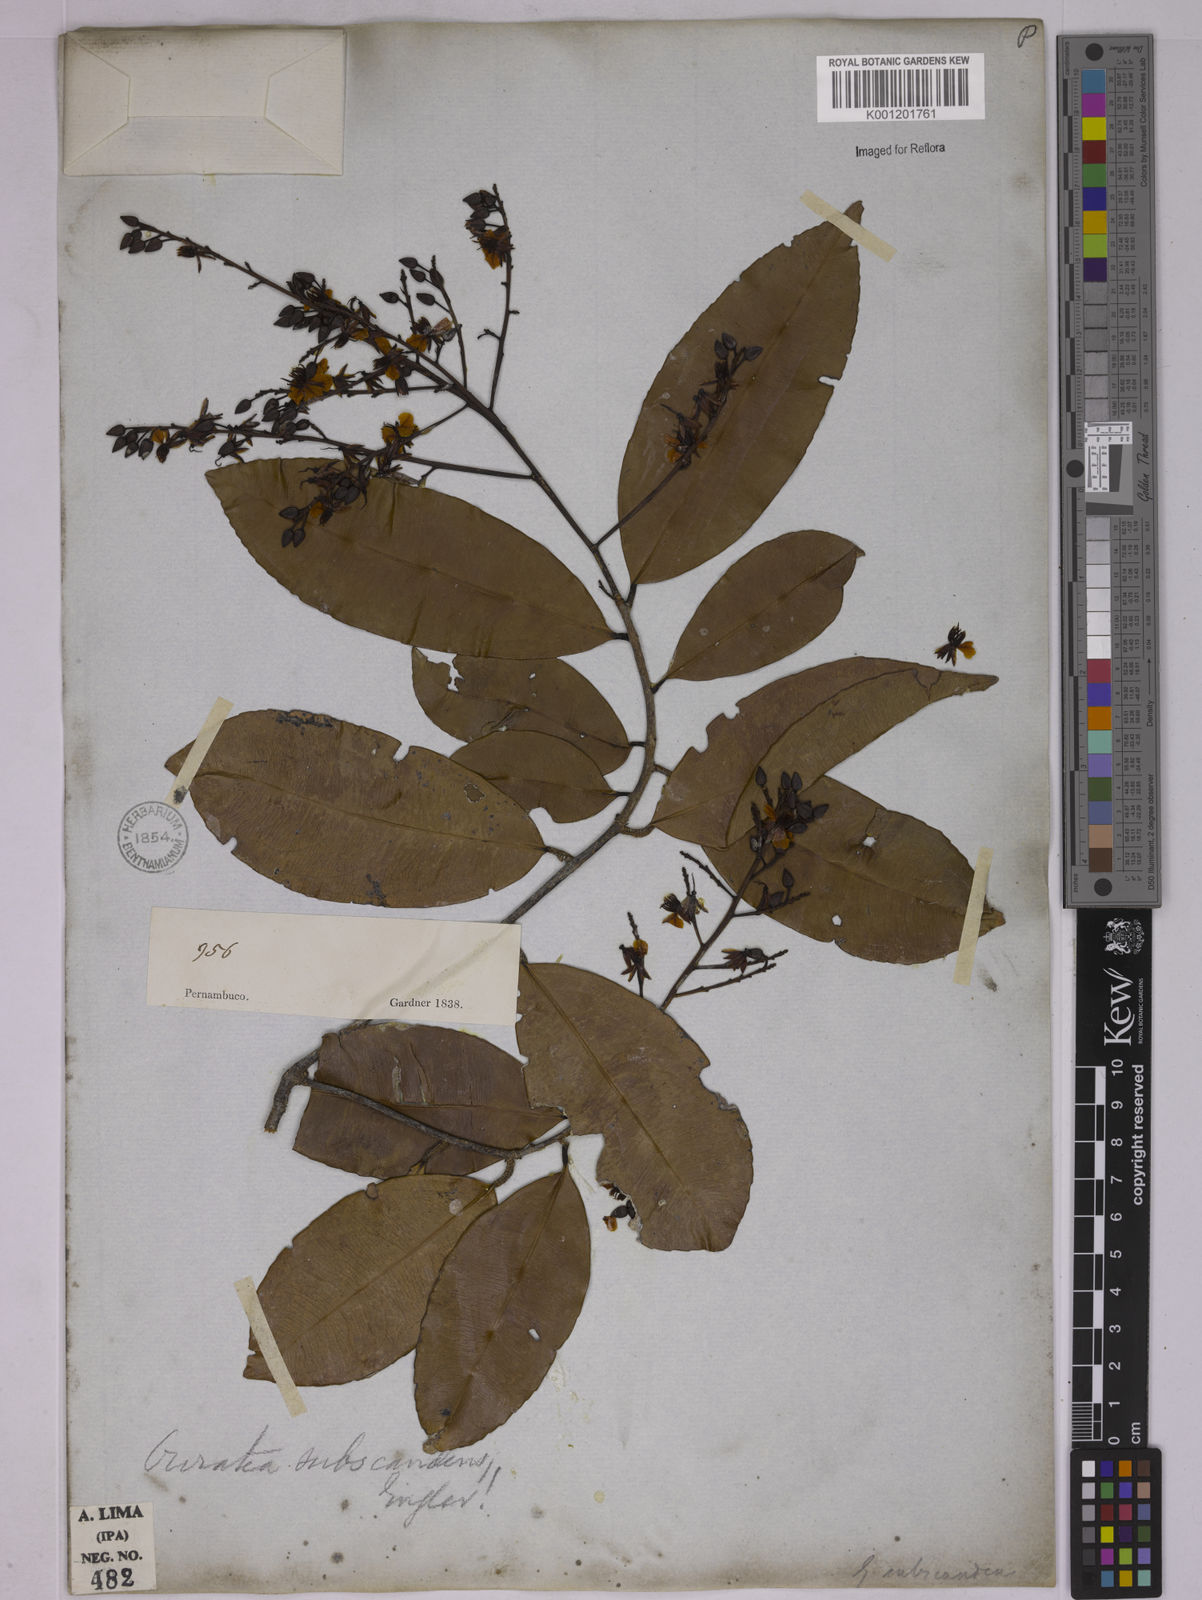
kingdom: Plantae
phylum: Tracheophyta
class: Magnoliopsida
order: Malpighiales
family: Ochnaceae
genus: Ouratea
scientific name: Ouratea subscandens
